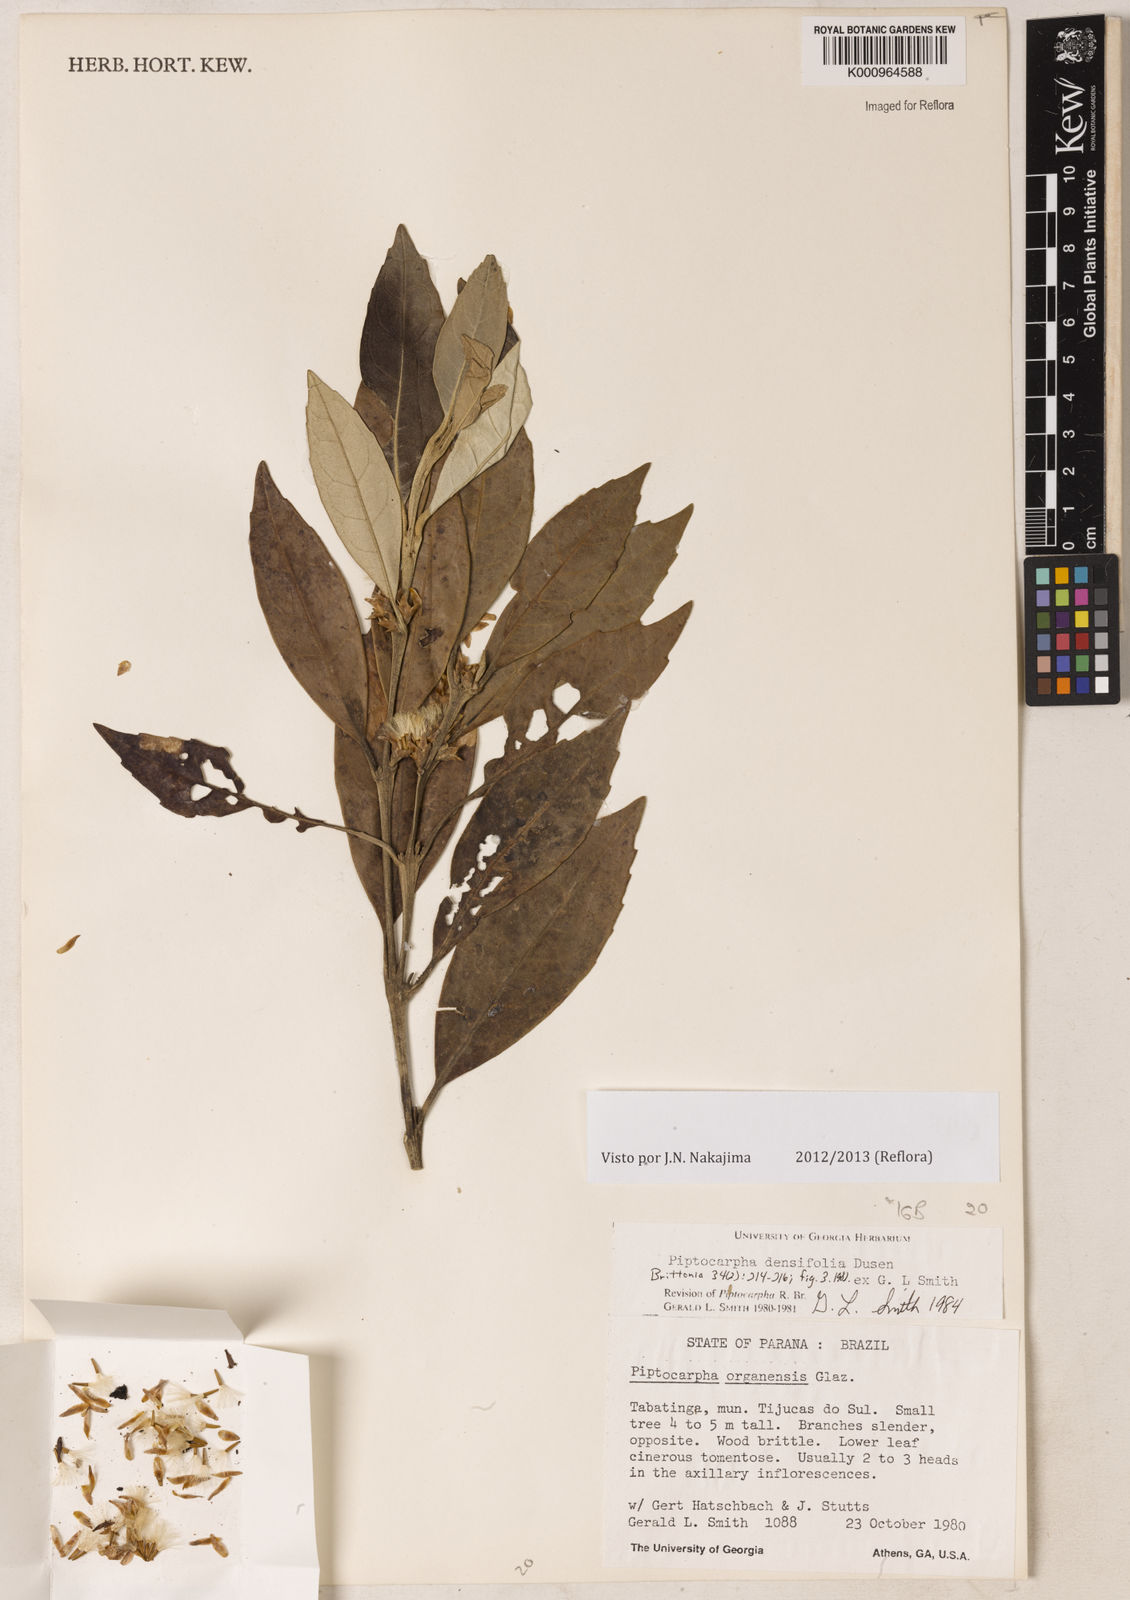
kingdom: Plantae
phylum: Tracheophyta
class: Magnoliopsida
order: Asterales
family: Asteraceae
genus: Piptocarpha
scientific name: Piptocarpha
